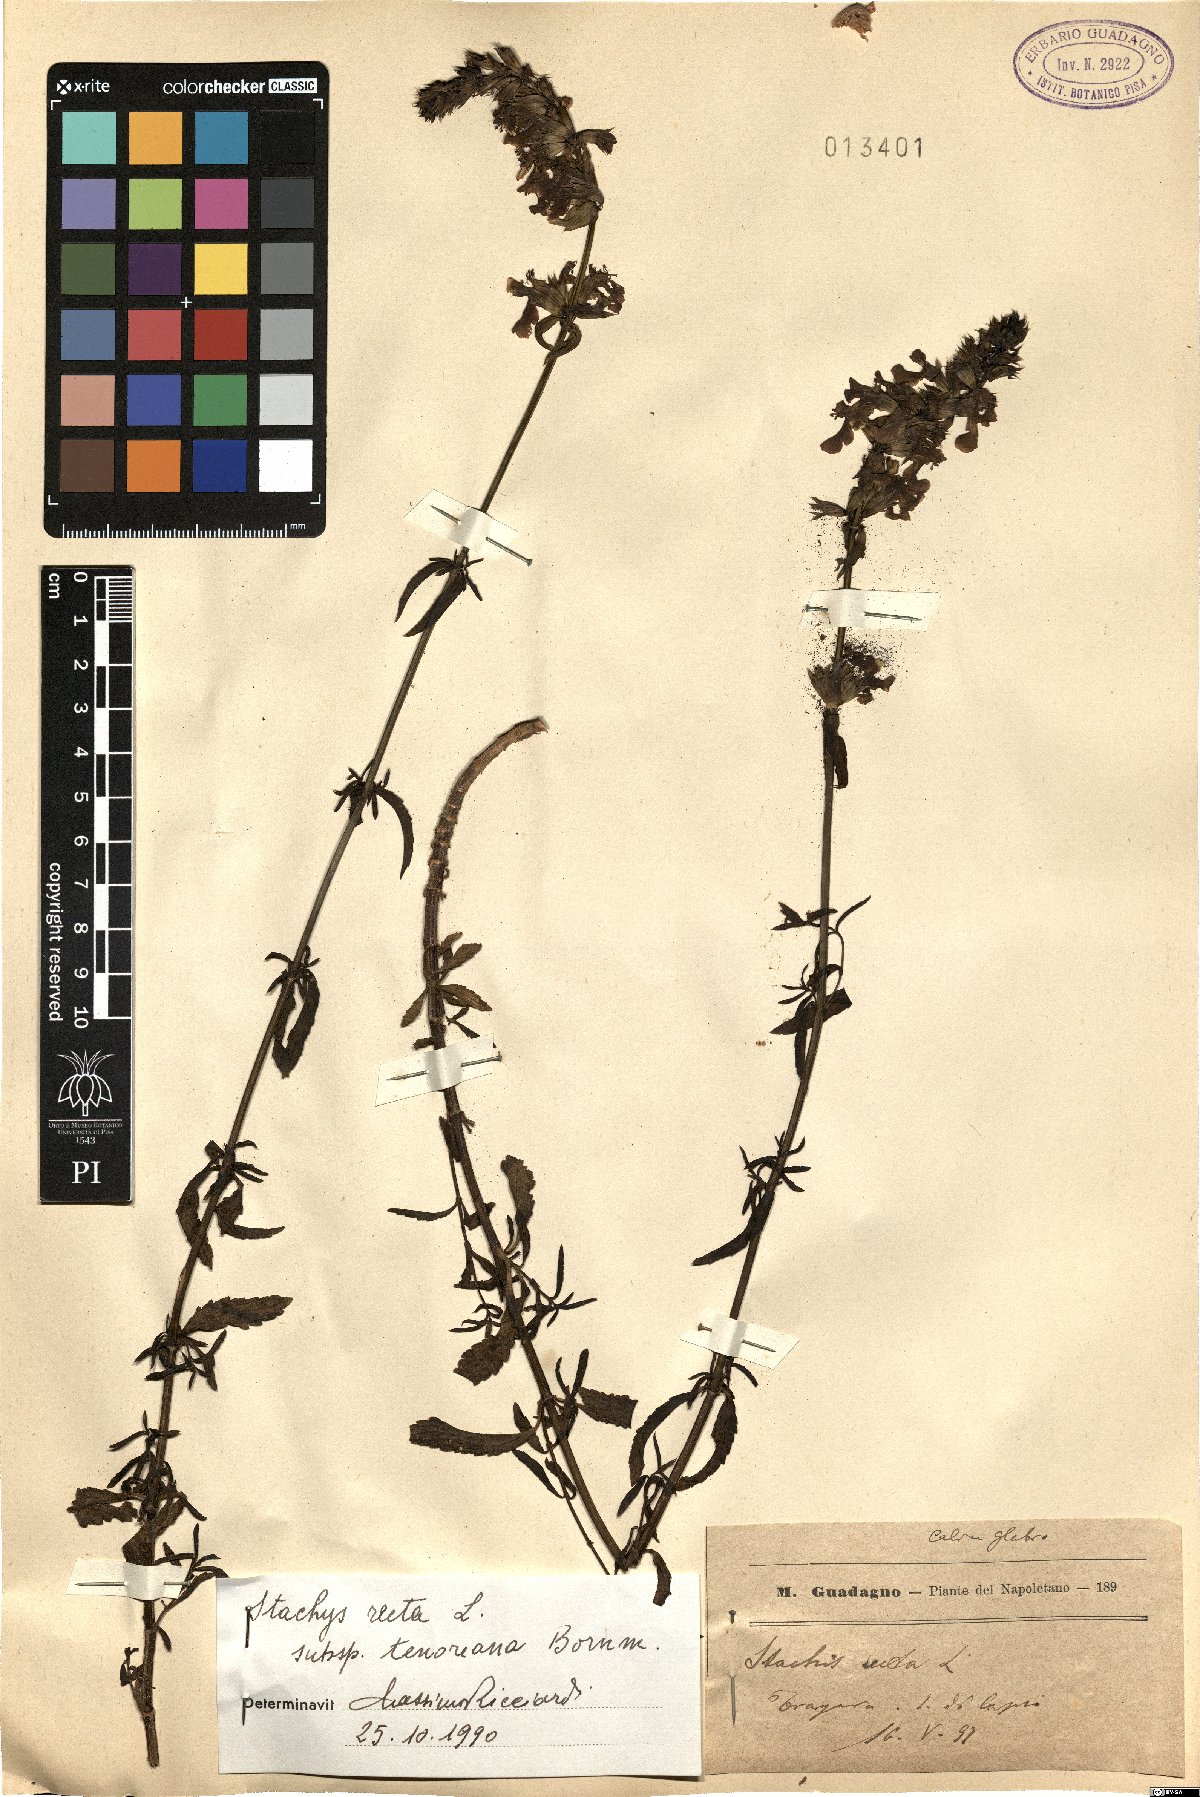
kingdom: Plantae
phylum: Tracheophyta
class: Magnoliopsida
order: Lamiales
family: Lamiaceae
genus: Stachys
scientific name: Stachys recta
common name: Perennial yellow-woundwort
